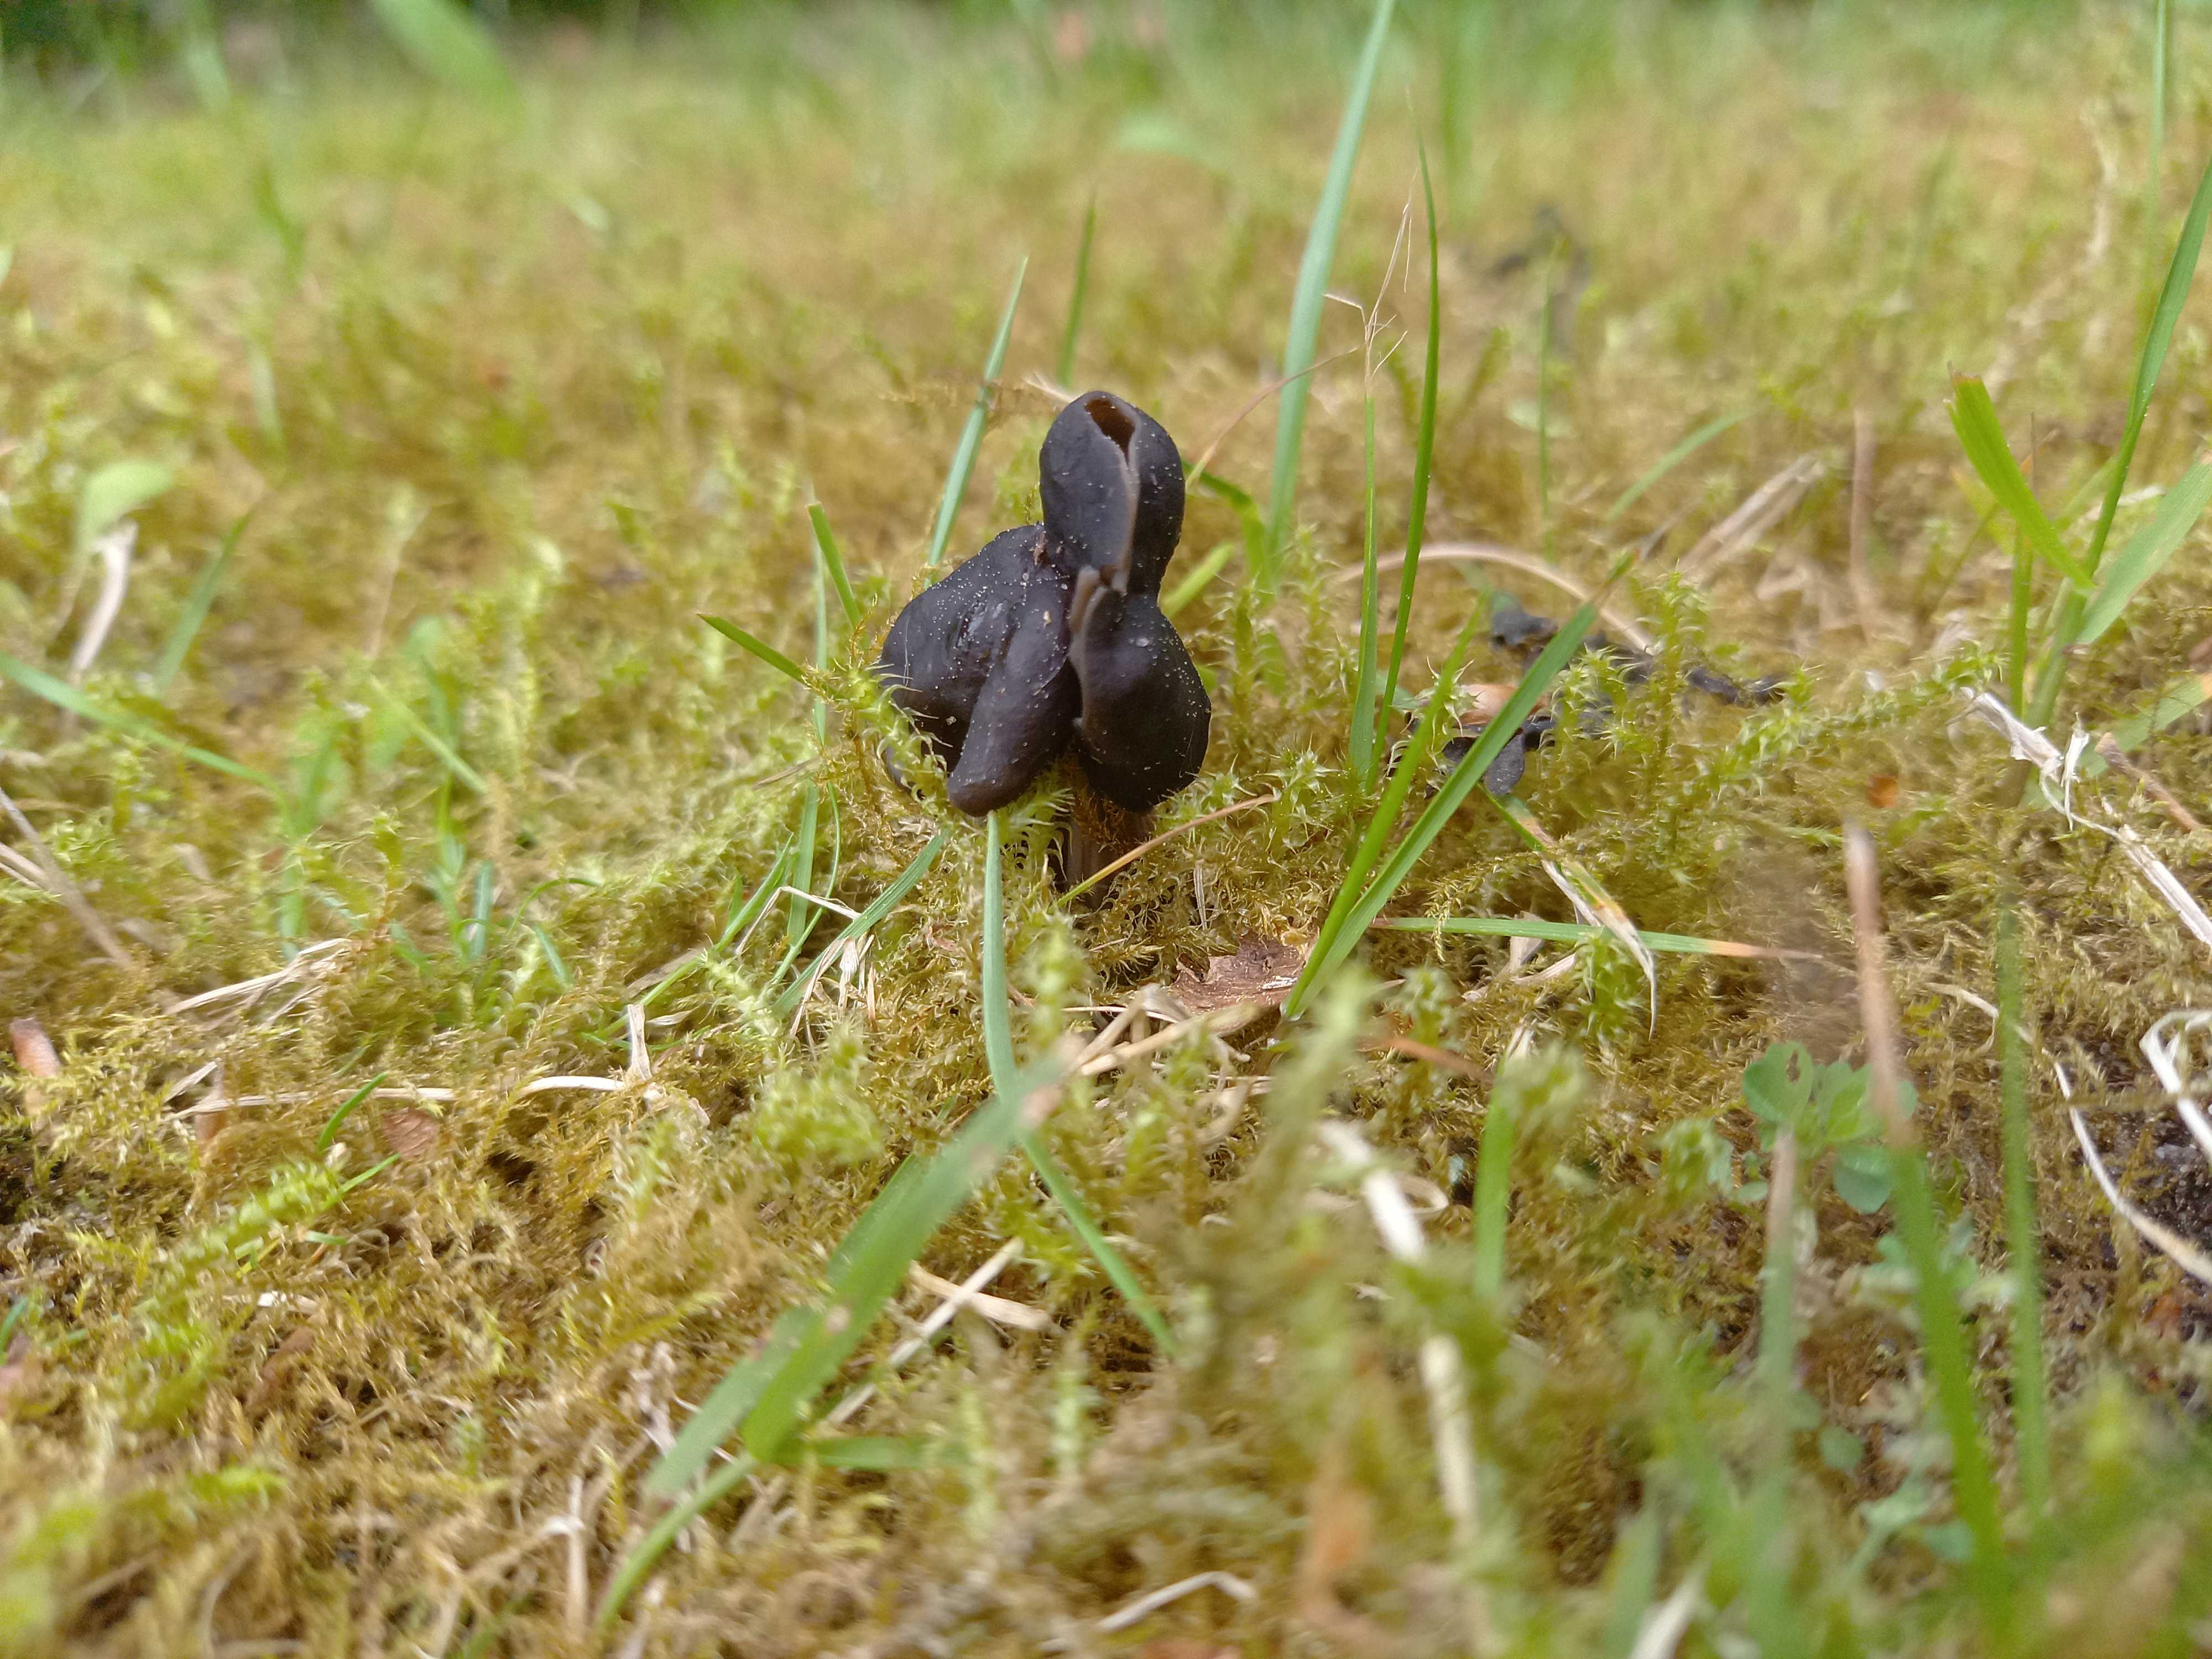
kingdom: Fungi
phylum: Ascomycota
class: Pezizomycetes
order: Pezizales
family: Helvellaceae
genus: Helvella
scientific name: Helvella lacunosa
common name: grubet foldhat
